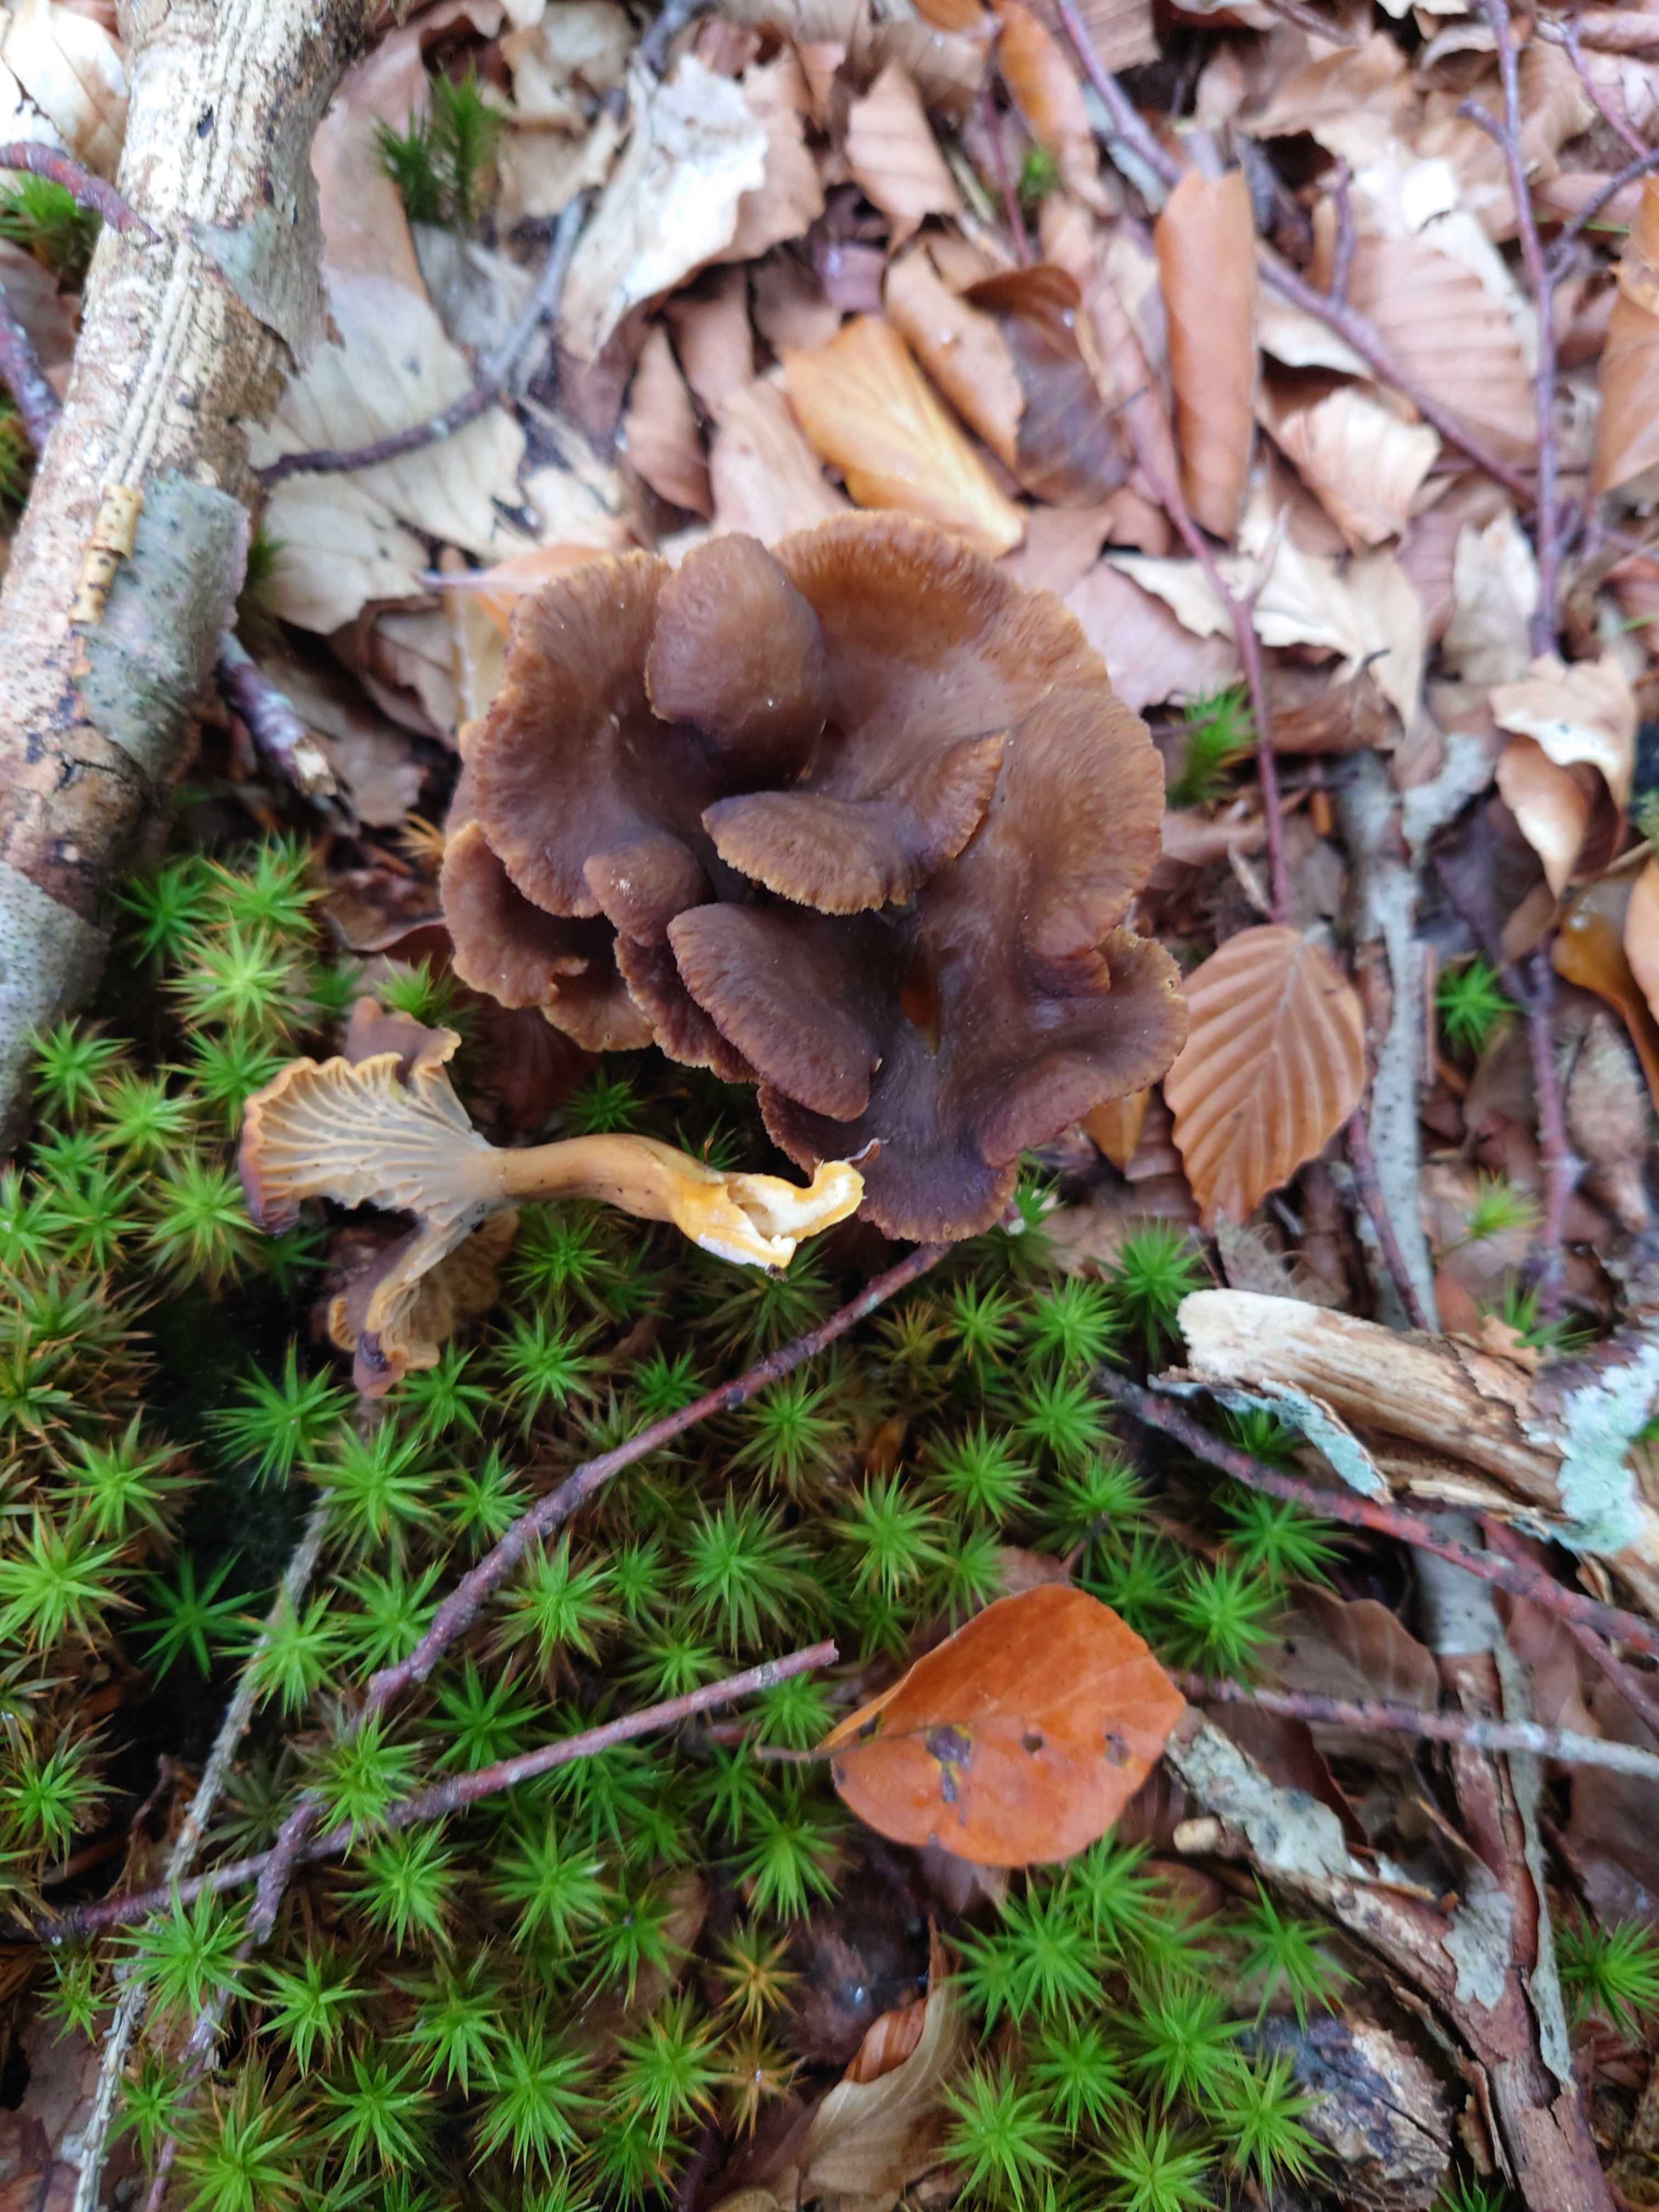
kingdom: Fungi
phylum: Basidiomycota
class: Agaricomycetes
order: Cantharellales
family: Hydnaceae
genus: Craterellus
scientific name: Craterellus tubaeformis
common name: tragt-kantarel
